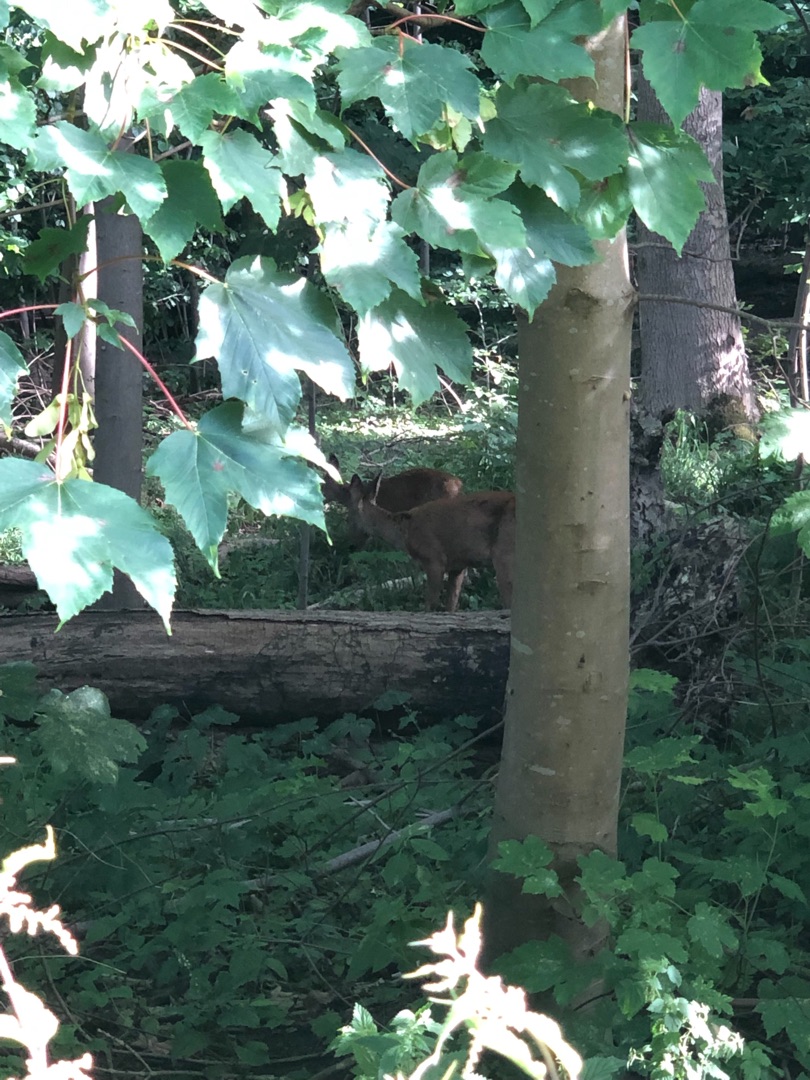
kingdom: Animalia
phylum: Chordata
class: Mammalia
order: Artiodactyla
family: Cervidae
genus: Capreolus
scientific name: Capreolus capreolus
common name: Rådyr
